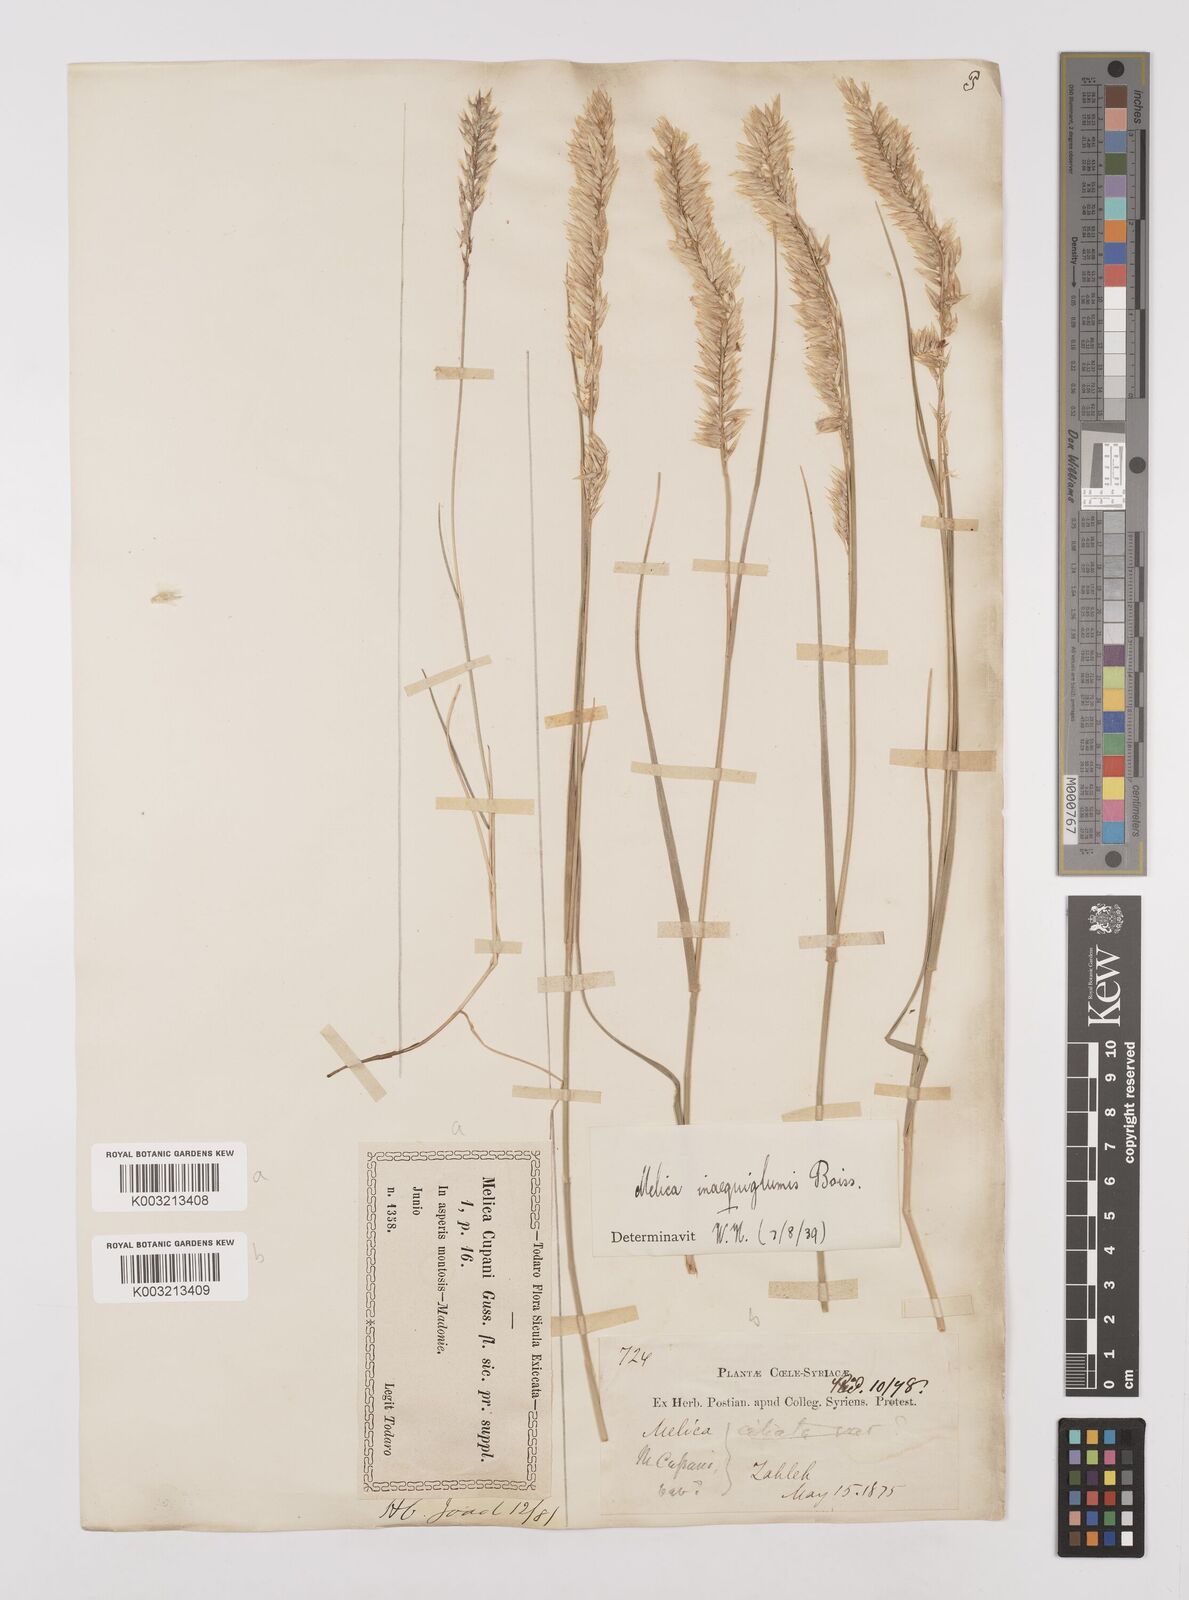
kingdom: Plantae
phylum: Tracheophyta
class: Liliopsida
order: Poales
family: Poaceae
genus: Melica
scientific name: Melica persica
